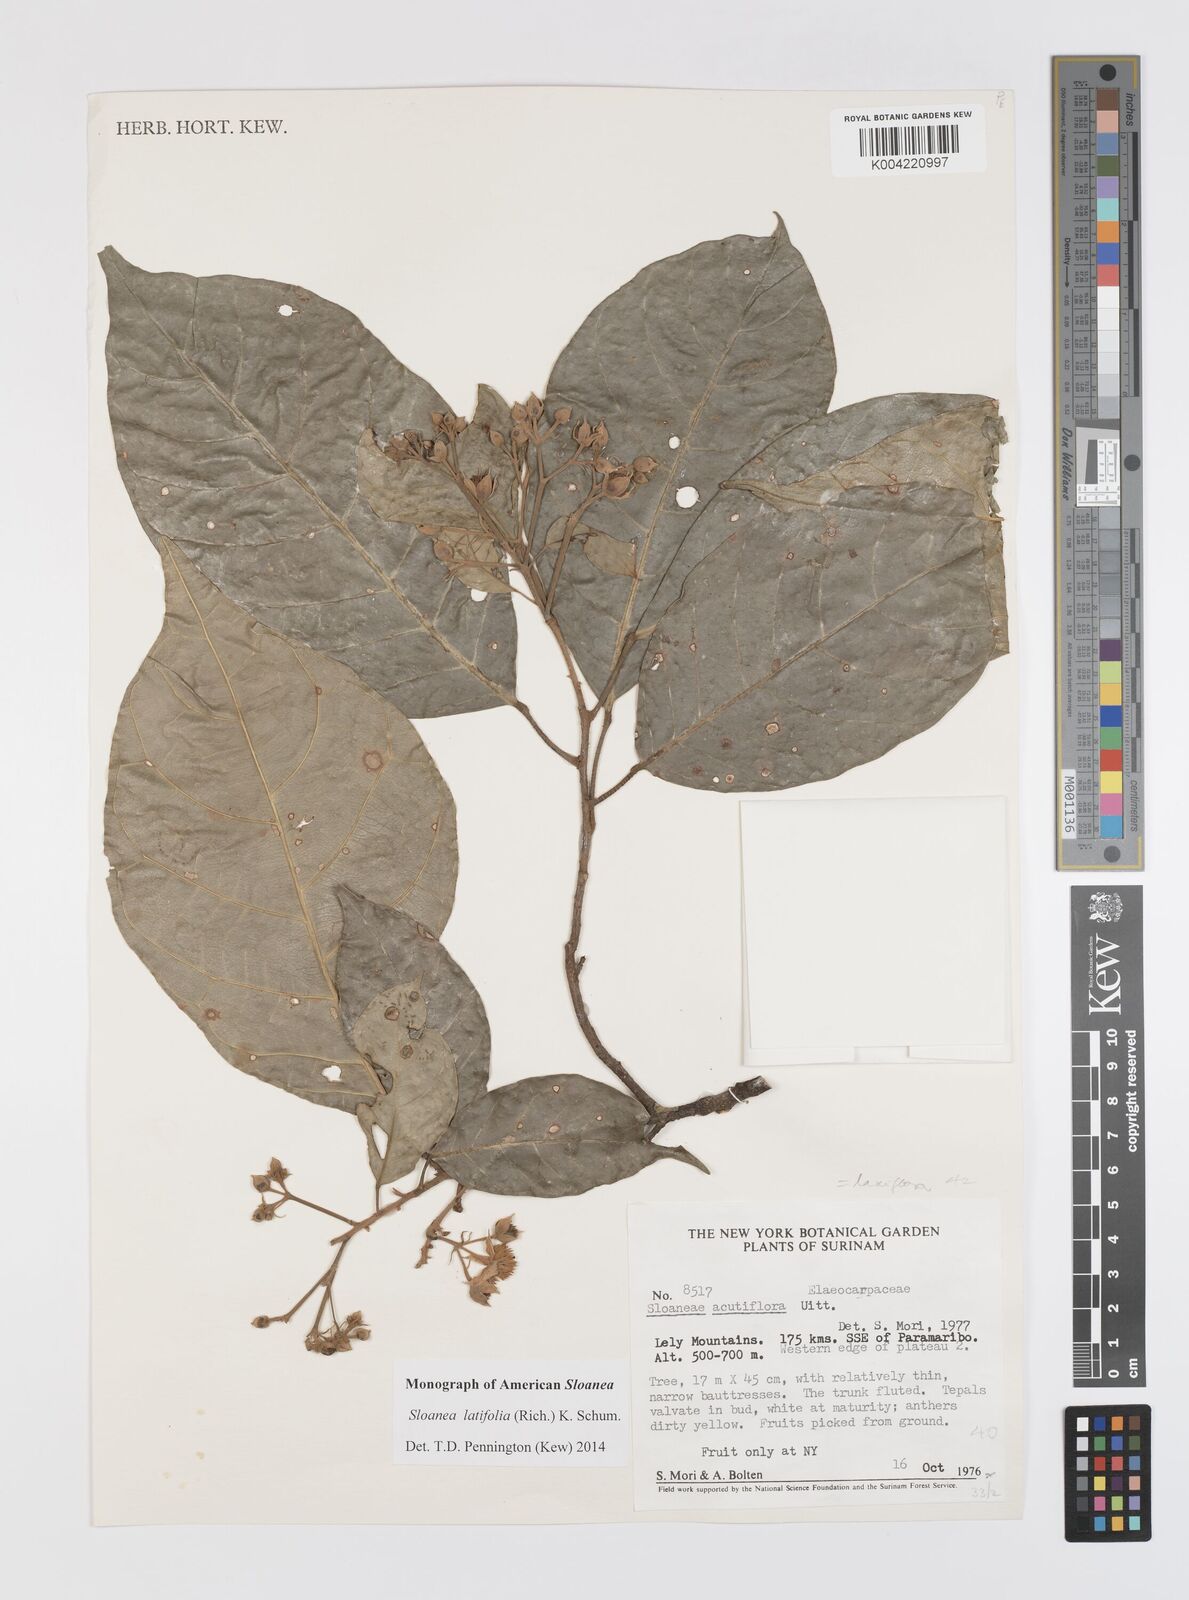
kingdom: Plantae
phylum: Tracheophyta
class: Magnoliopsida
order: Oxalidales
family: Elaeocarpaceae
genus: Sloanea
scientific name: Sloanea latifolia
